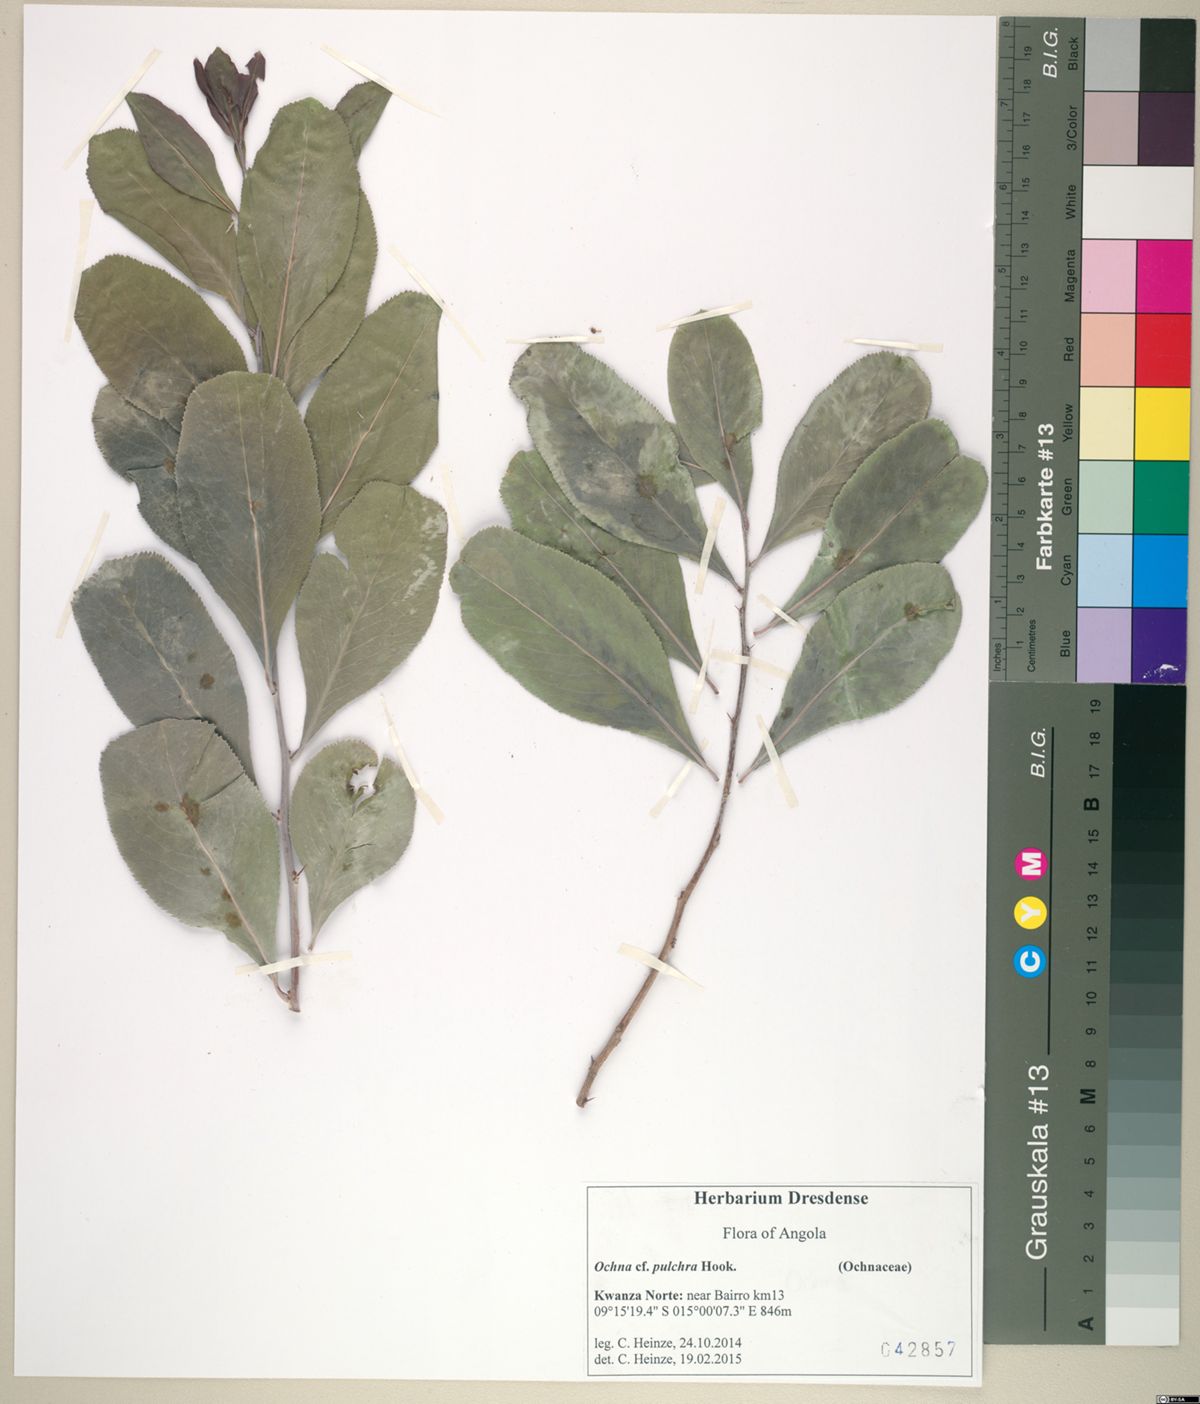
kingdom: Plantae
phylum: Tracheophyta
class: Magnoliopsida
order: Celastrales
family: Celastraceae
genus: Gymnosporia
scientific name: Gymnosporia senegalensis
